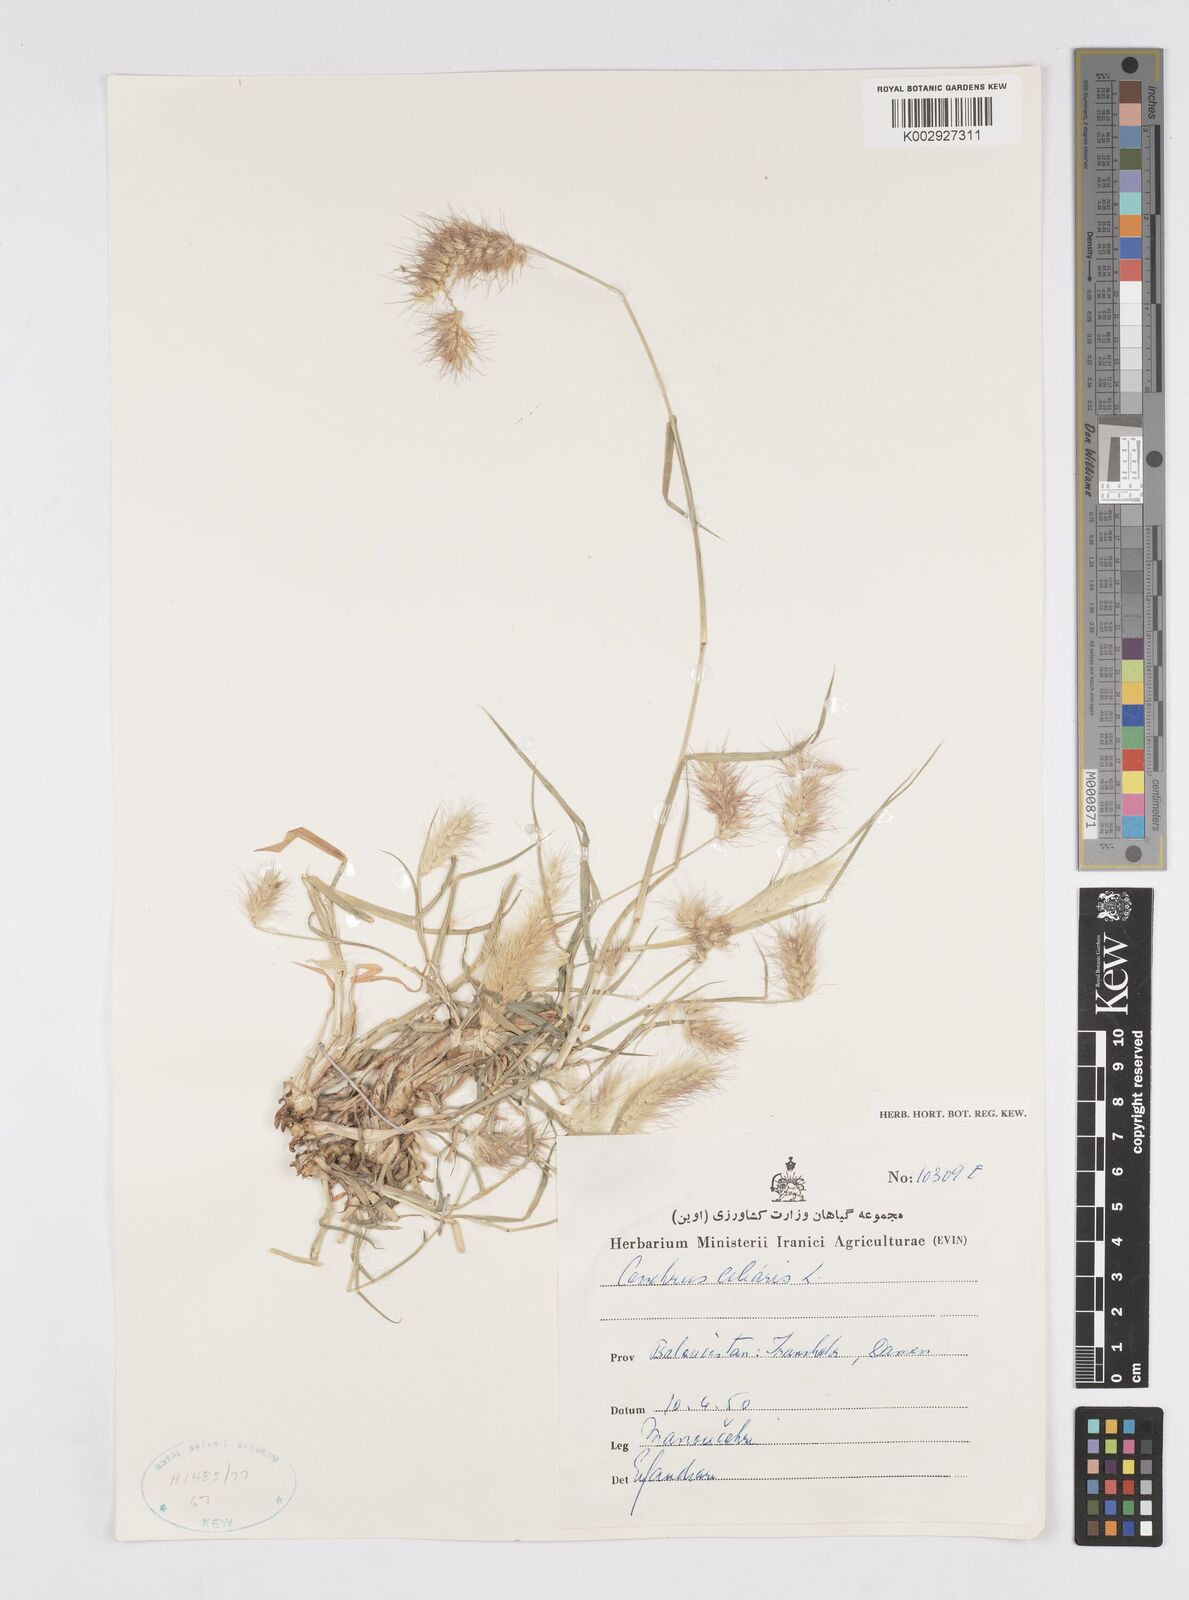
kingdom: Plantae
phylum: Tracheophyta
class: Liliopsida
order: Poales
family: Poaceae
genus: Cenchrus
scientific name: Cenchrus ciliaris
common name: Buffelgrass
